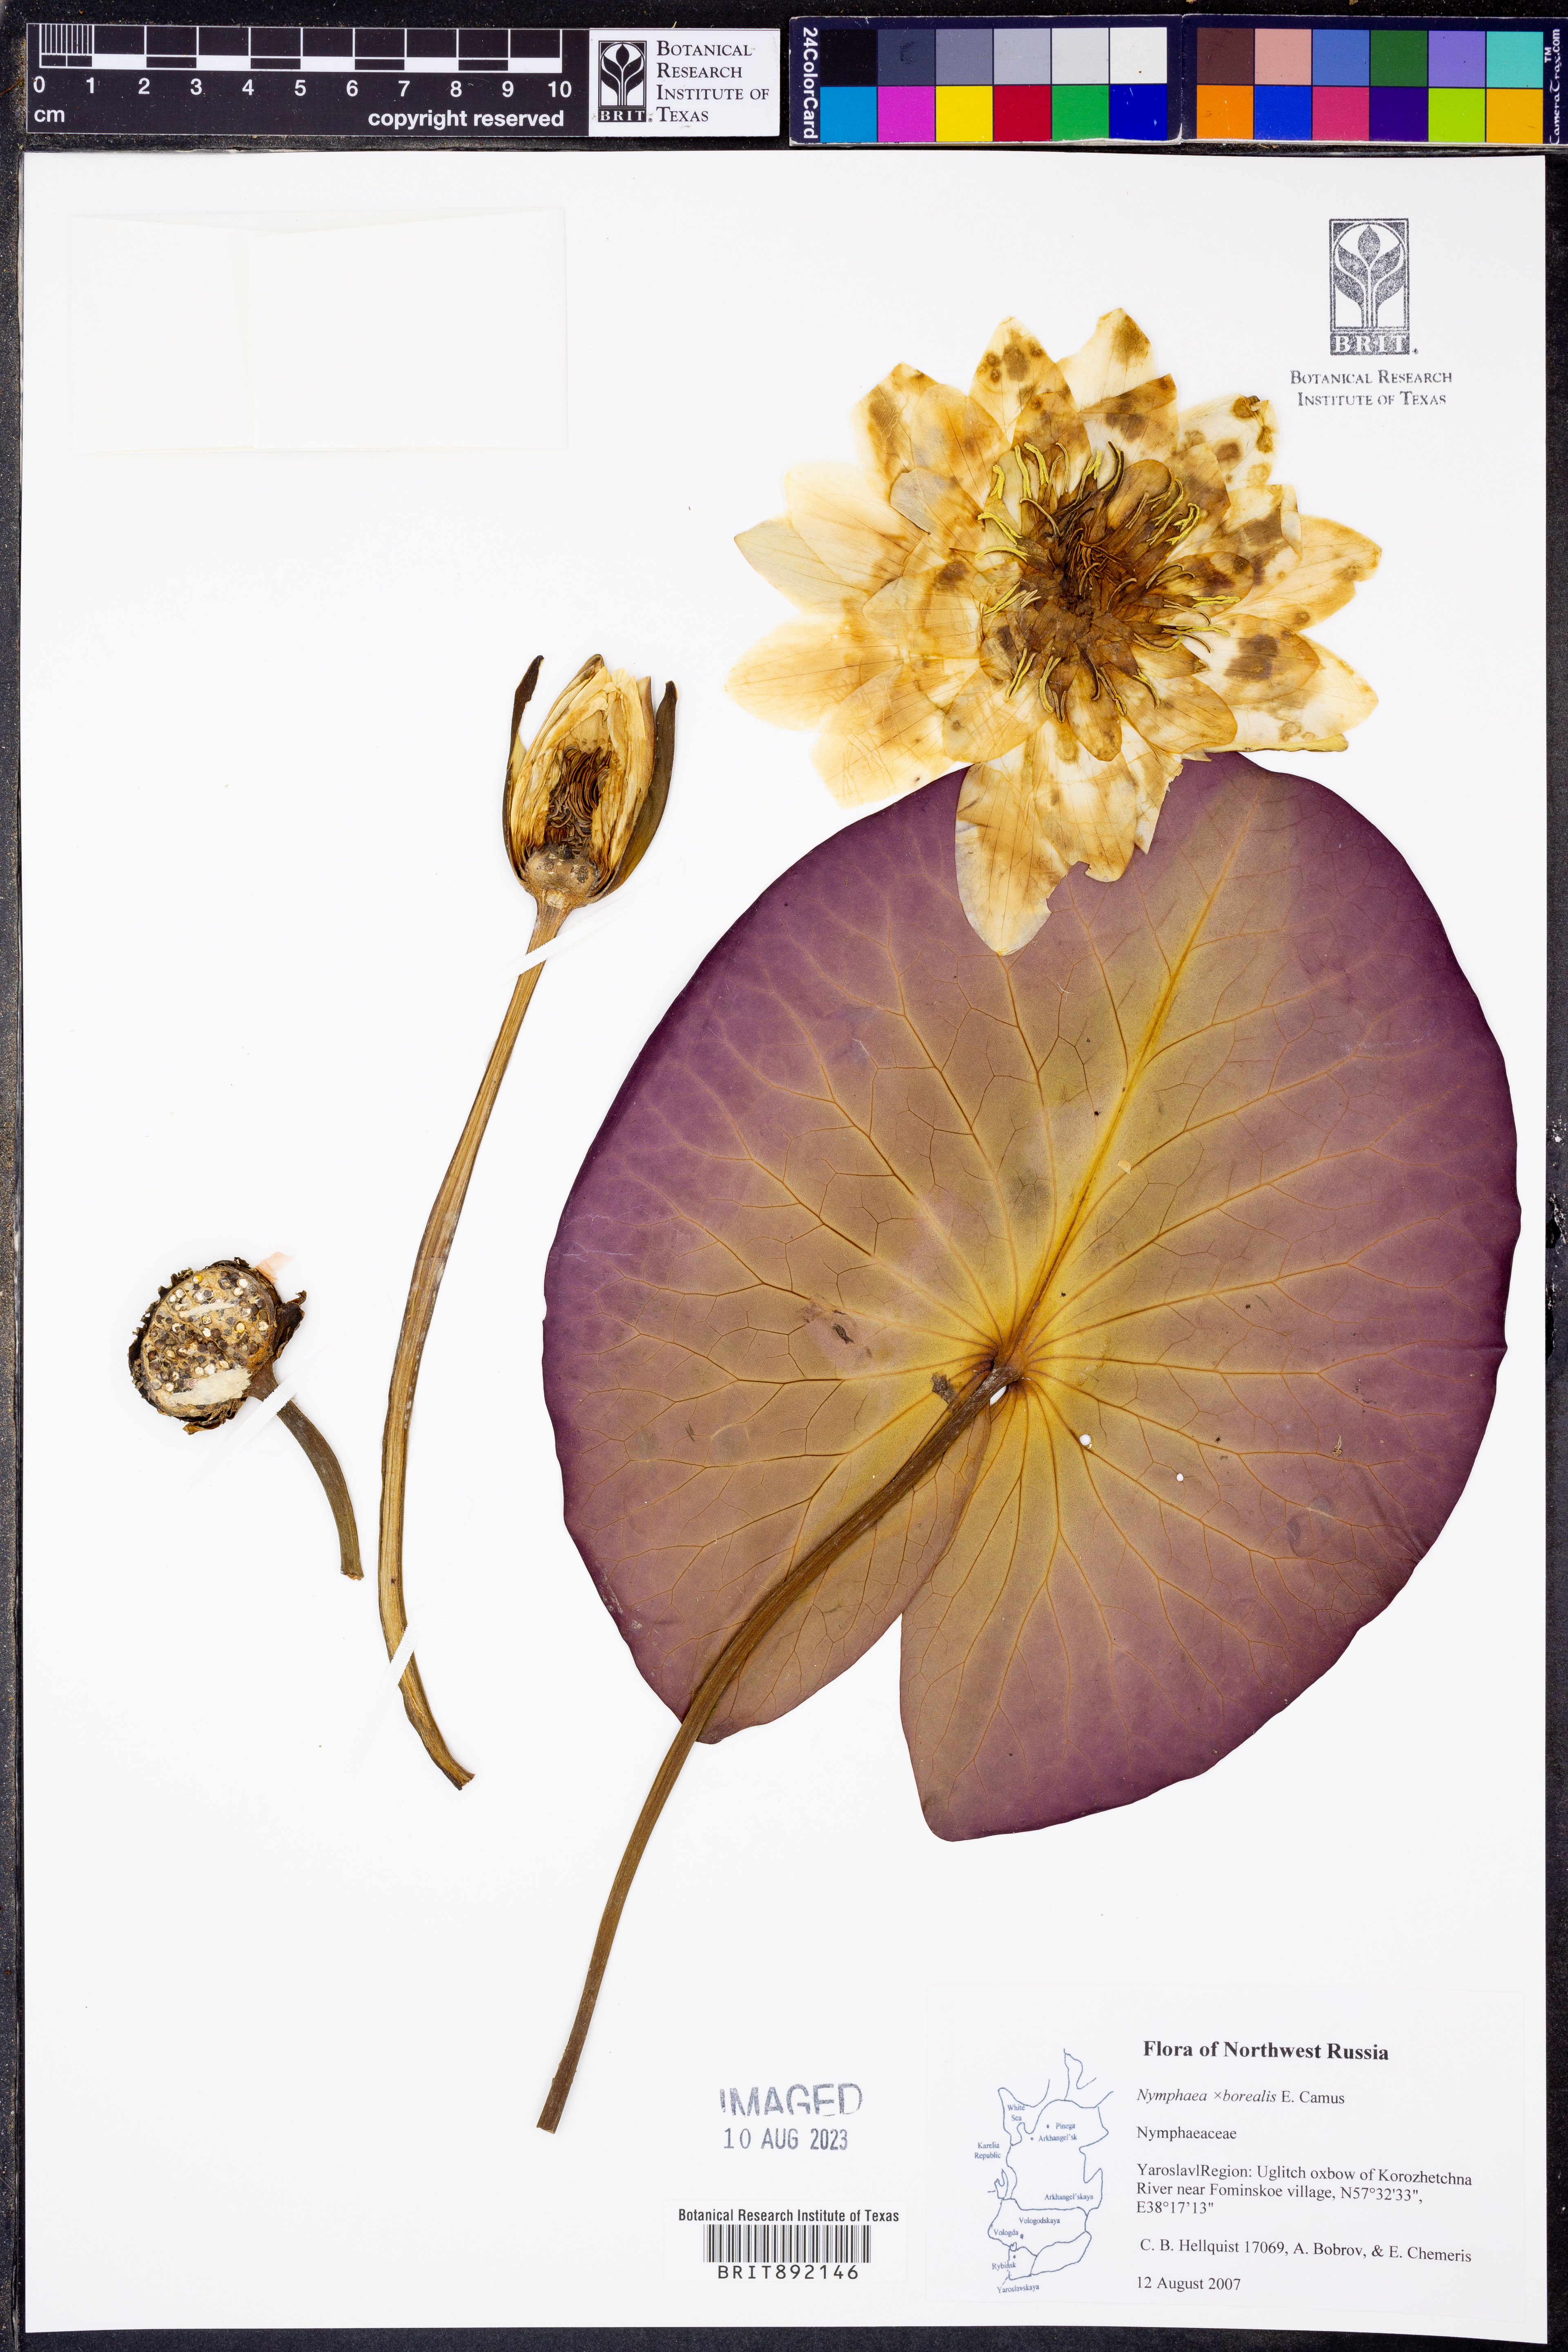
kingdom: Plantae
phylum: Tracheophyta
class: Magnoliopsida
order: Nymphaeales
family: Nymphaeaceae
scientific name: Nymphaeaceae
